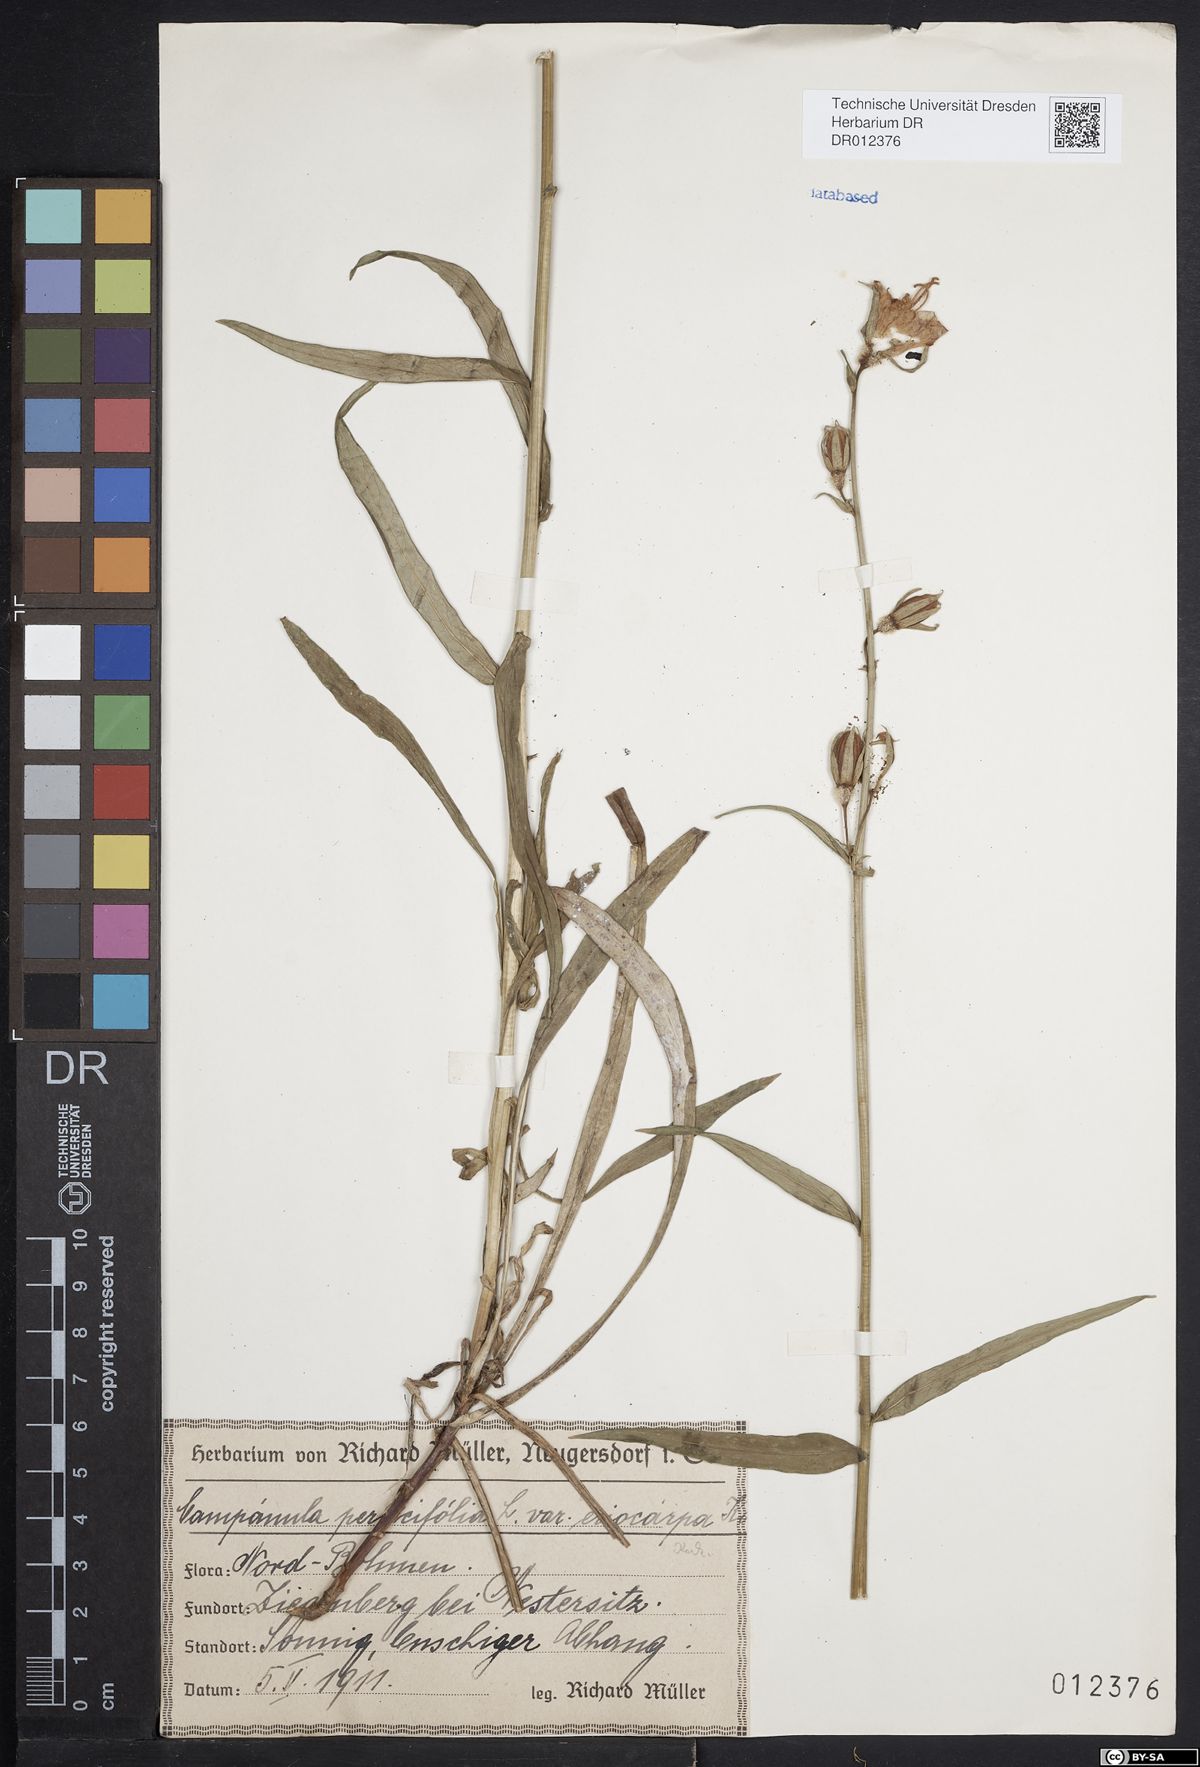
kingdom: Plantae
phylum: Tracheophyta
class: Magnoliopsida
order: Asterales
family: Campanulaceae
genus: Campanula
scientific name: Campanula persicifolia
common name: Peach-leaved bellflower
